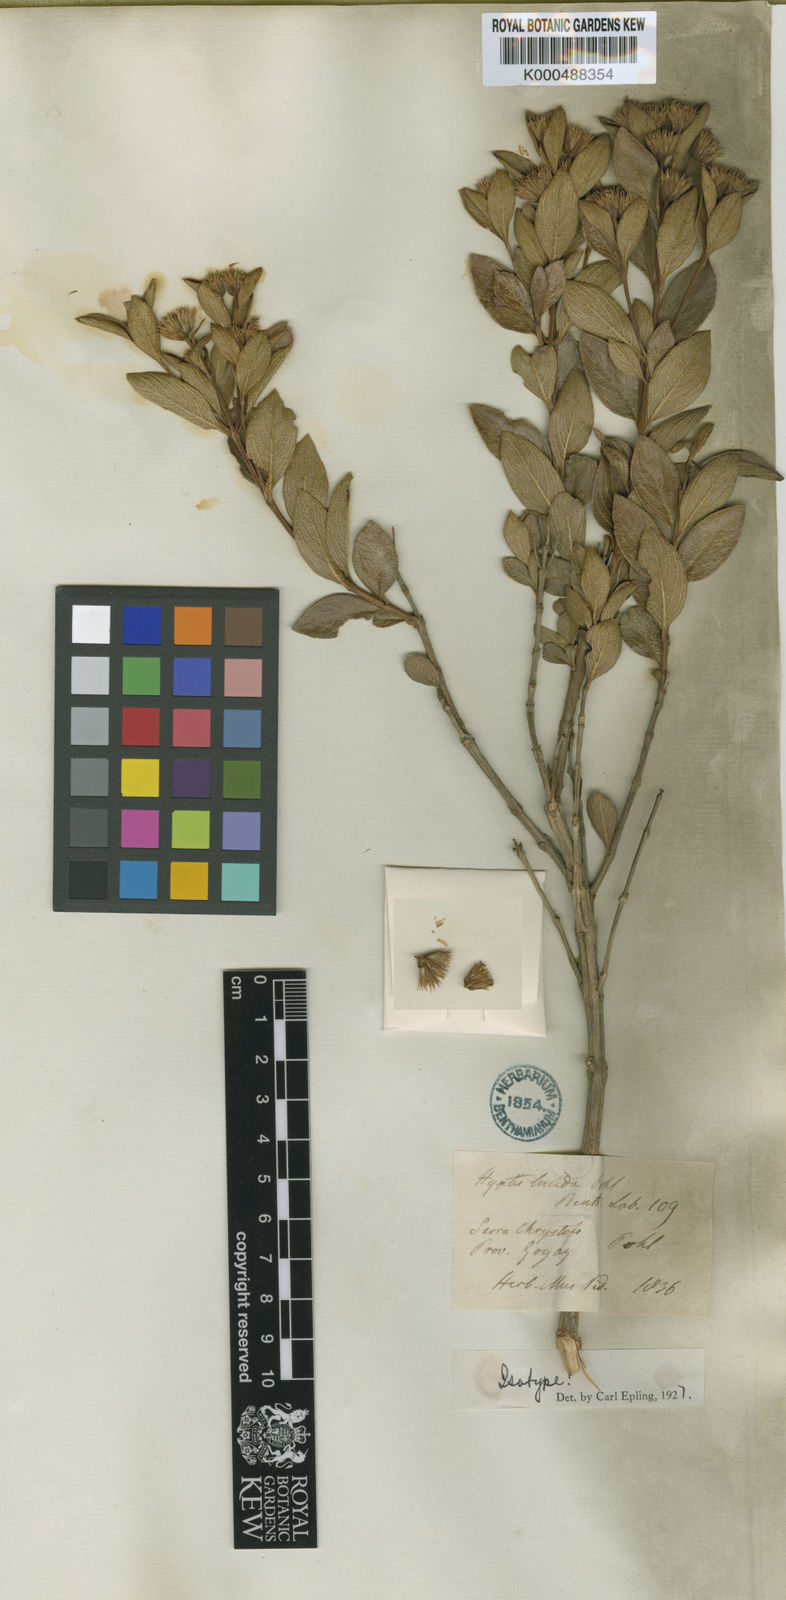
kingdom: Plantae
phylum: Tracheophyta
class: Magnoliopsida
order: Lamiales
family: Lamiaceae
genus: Hyptis
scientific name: Hyptis lucida
